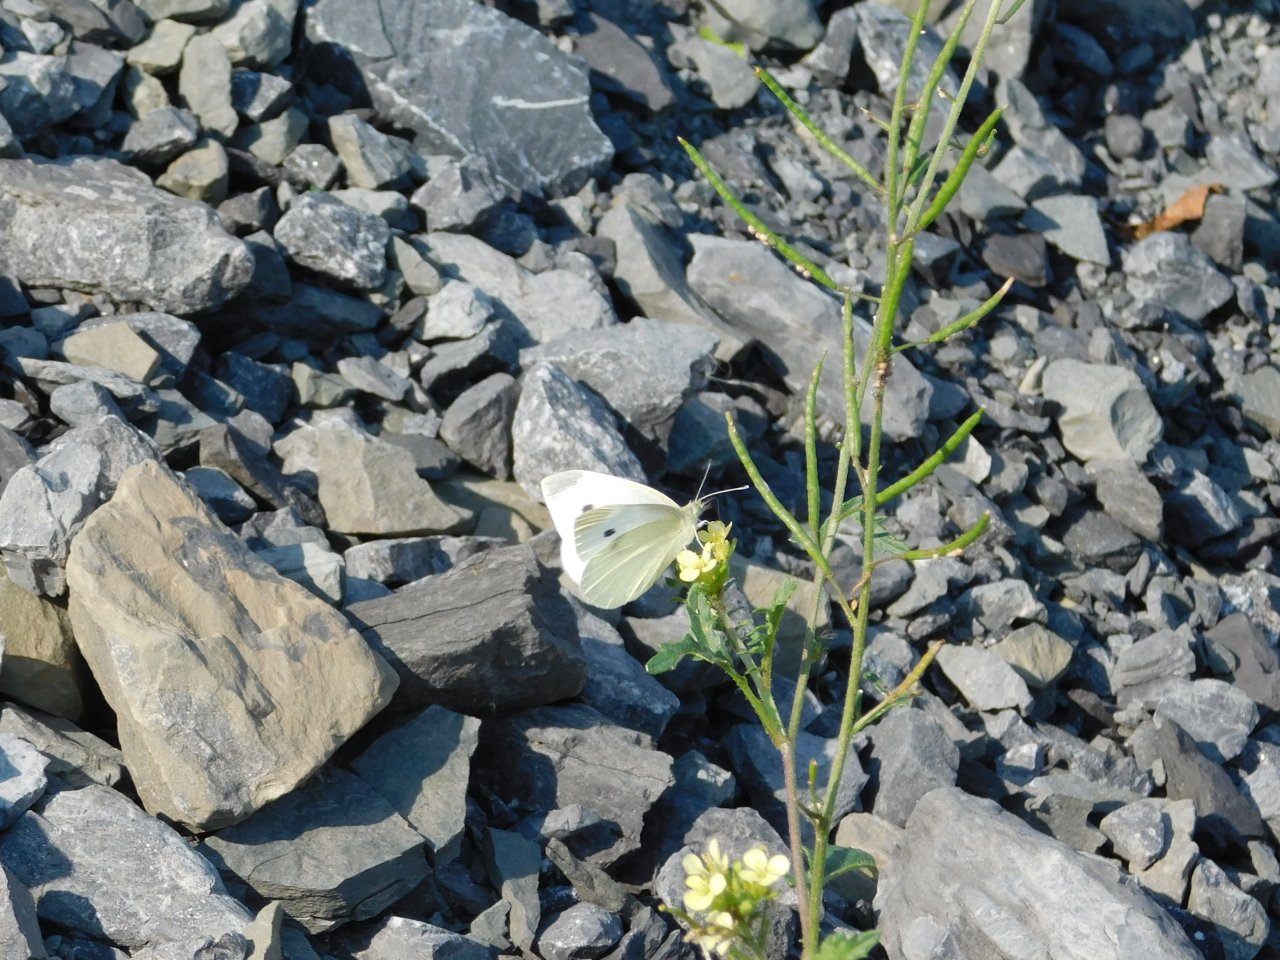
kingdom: Animalia
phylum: Arthropoda
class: Insecta
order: Lepidoptera
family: Pieridae
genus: Pieris
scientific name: Pieris rapae
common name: Cabbage White
